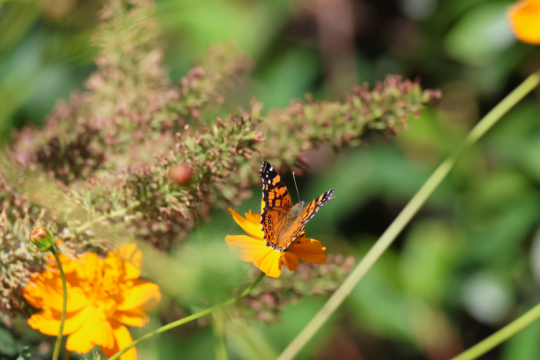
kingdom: Animalia
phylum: Arthropoda
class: Insecta
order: Lepidoptera
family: Nymphalidae
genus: Vanessa
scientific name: Vanessa annabella
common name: West Coast Lady
